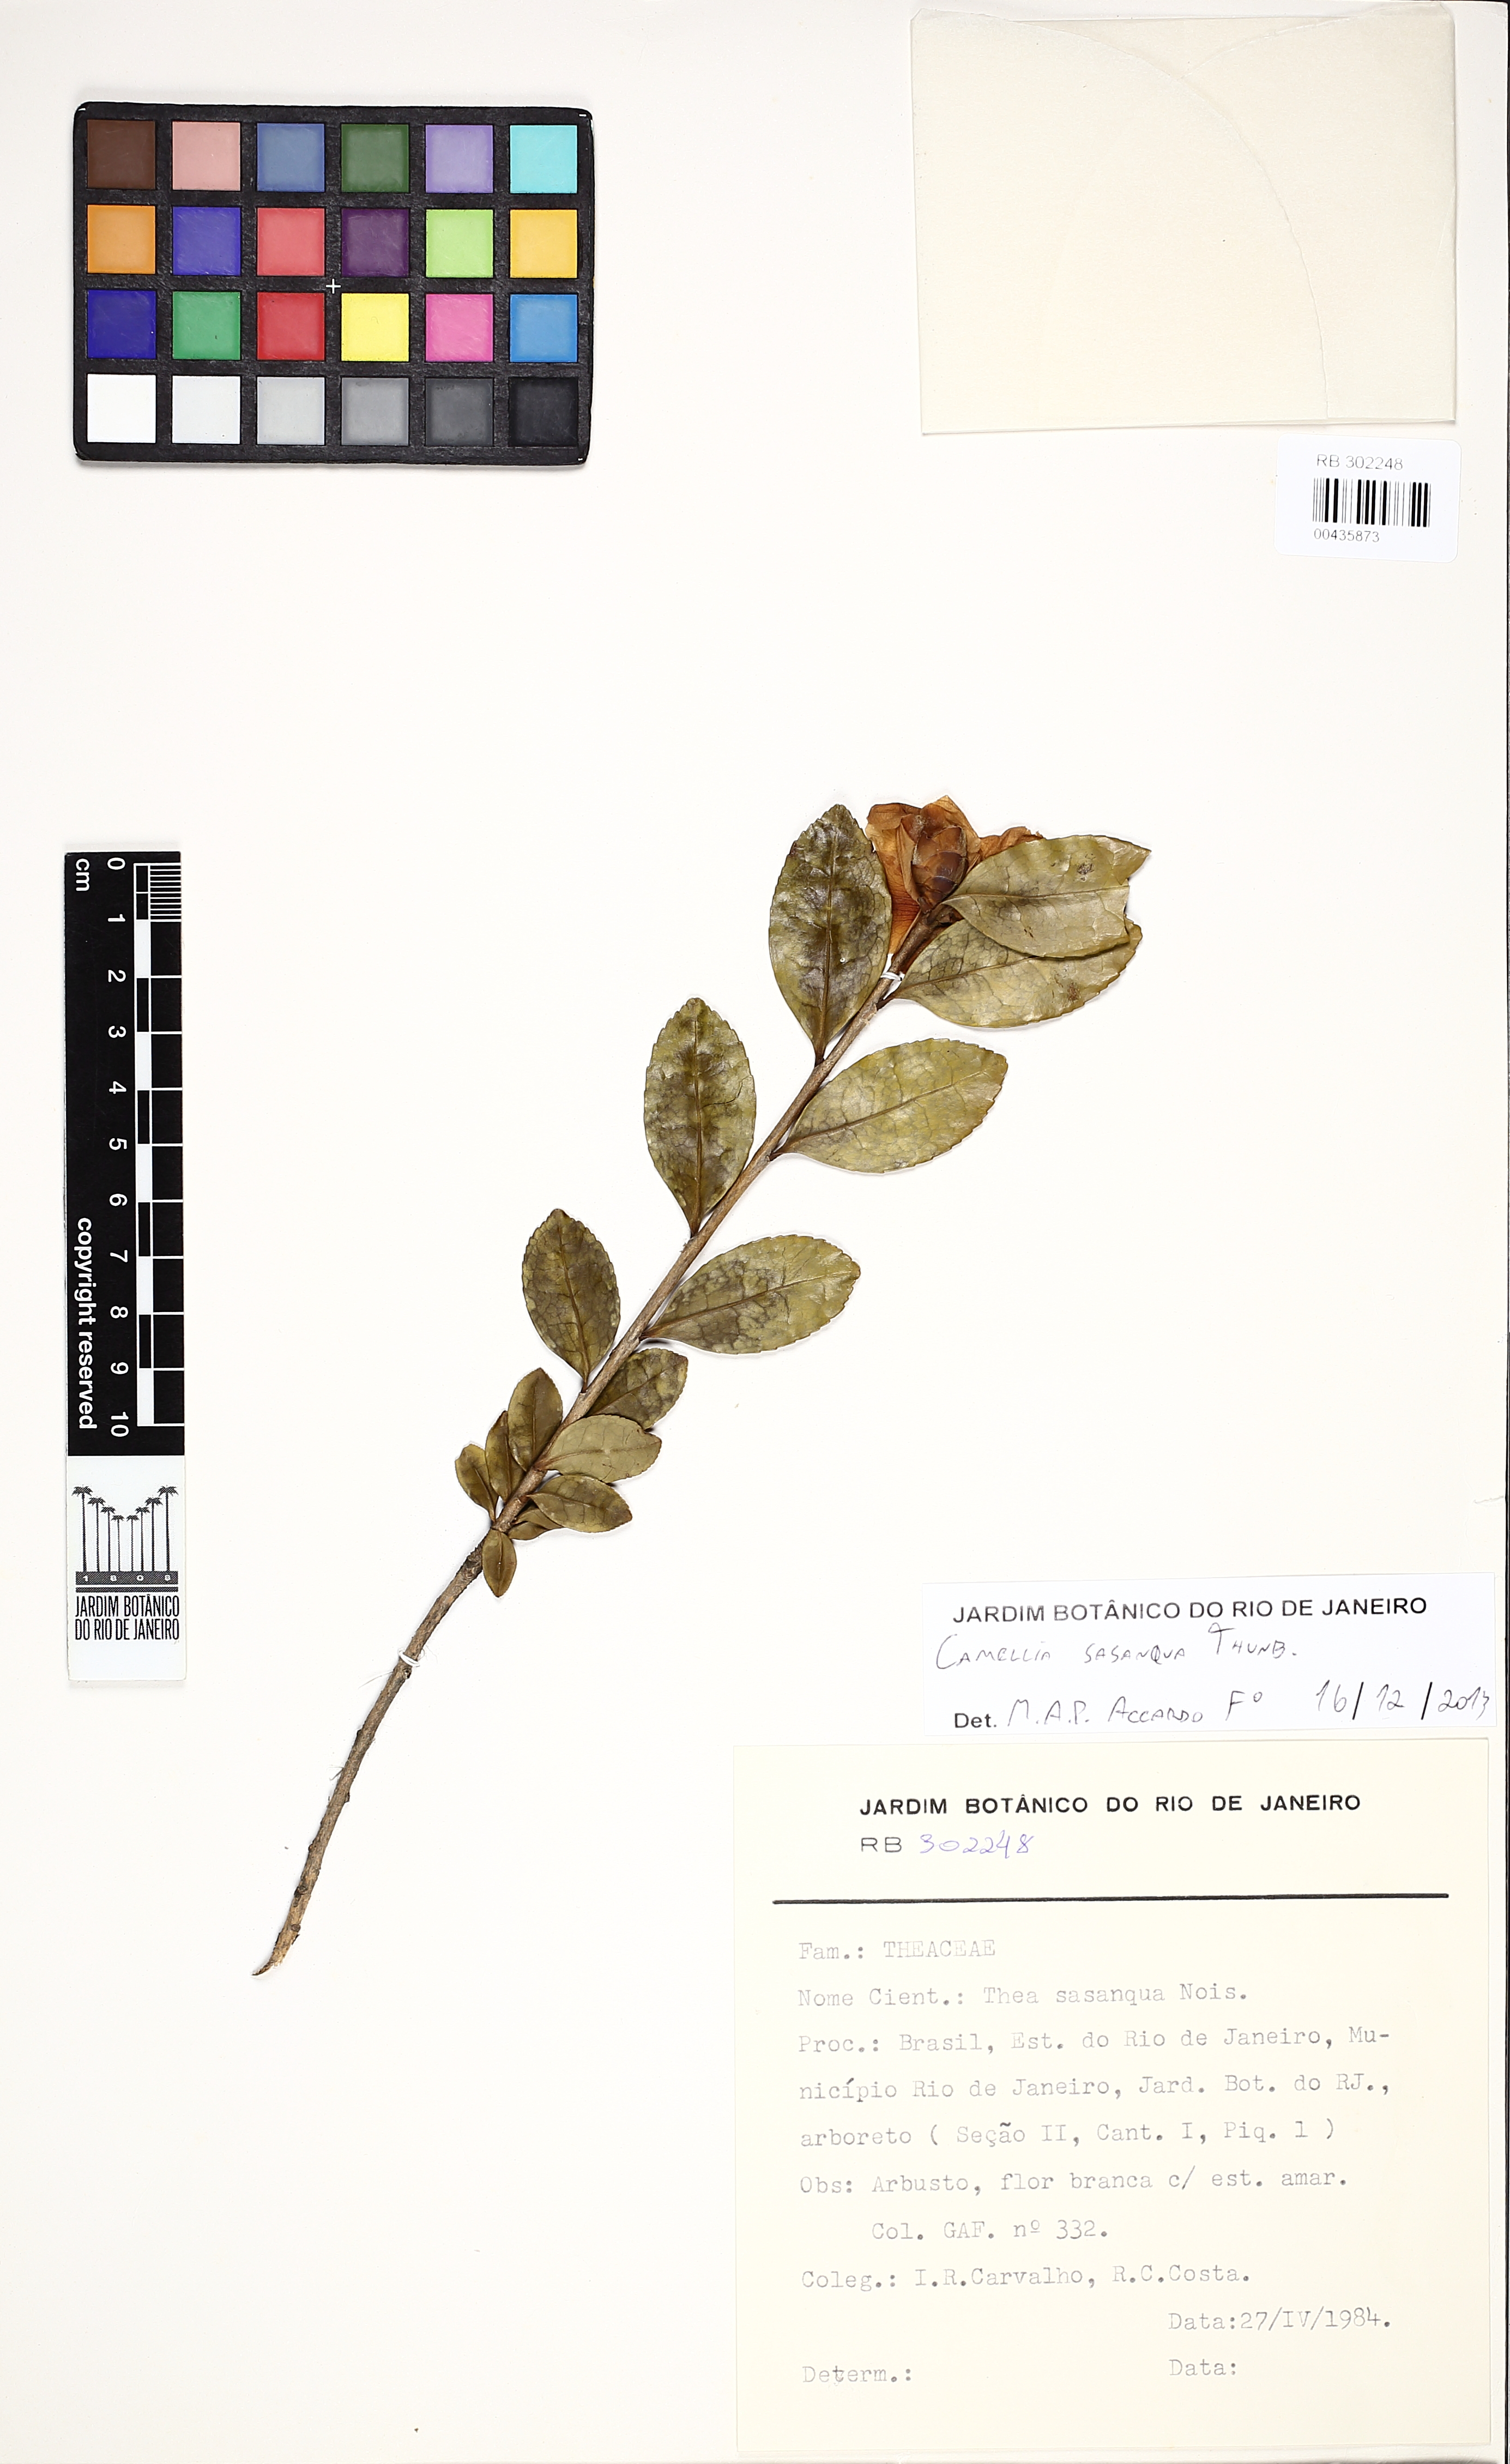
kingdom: Plantae
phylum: Tracheophyta
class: Magnoliopsida
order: Ericales
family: Theaceae
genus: Camellia
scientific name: Camellia sasanqua
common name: Sasanqua camellia
